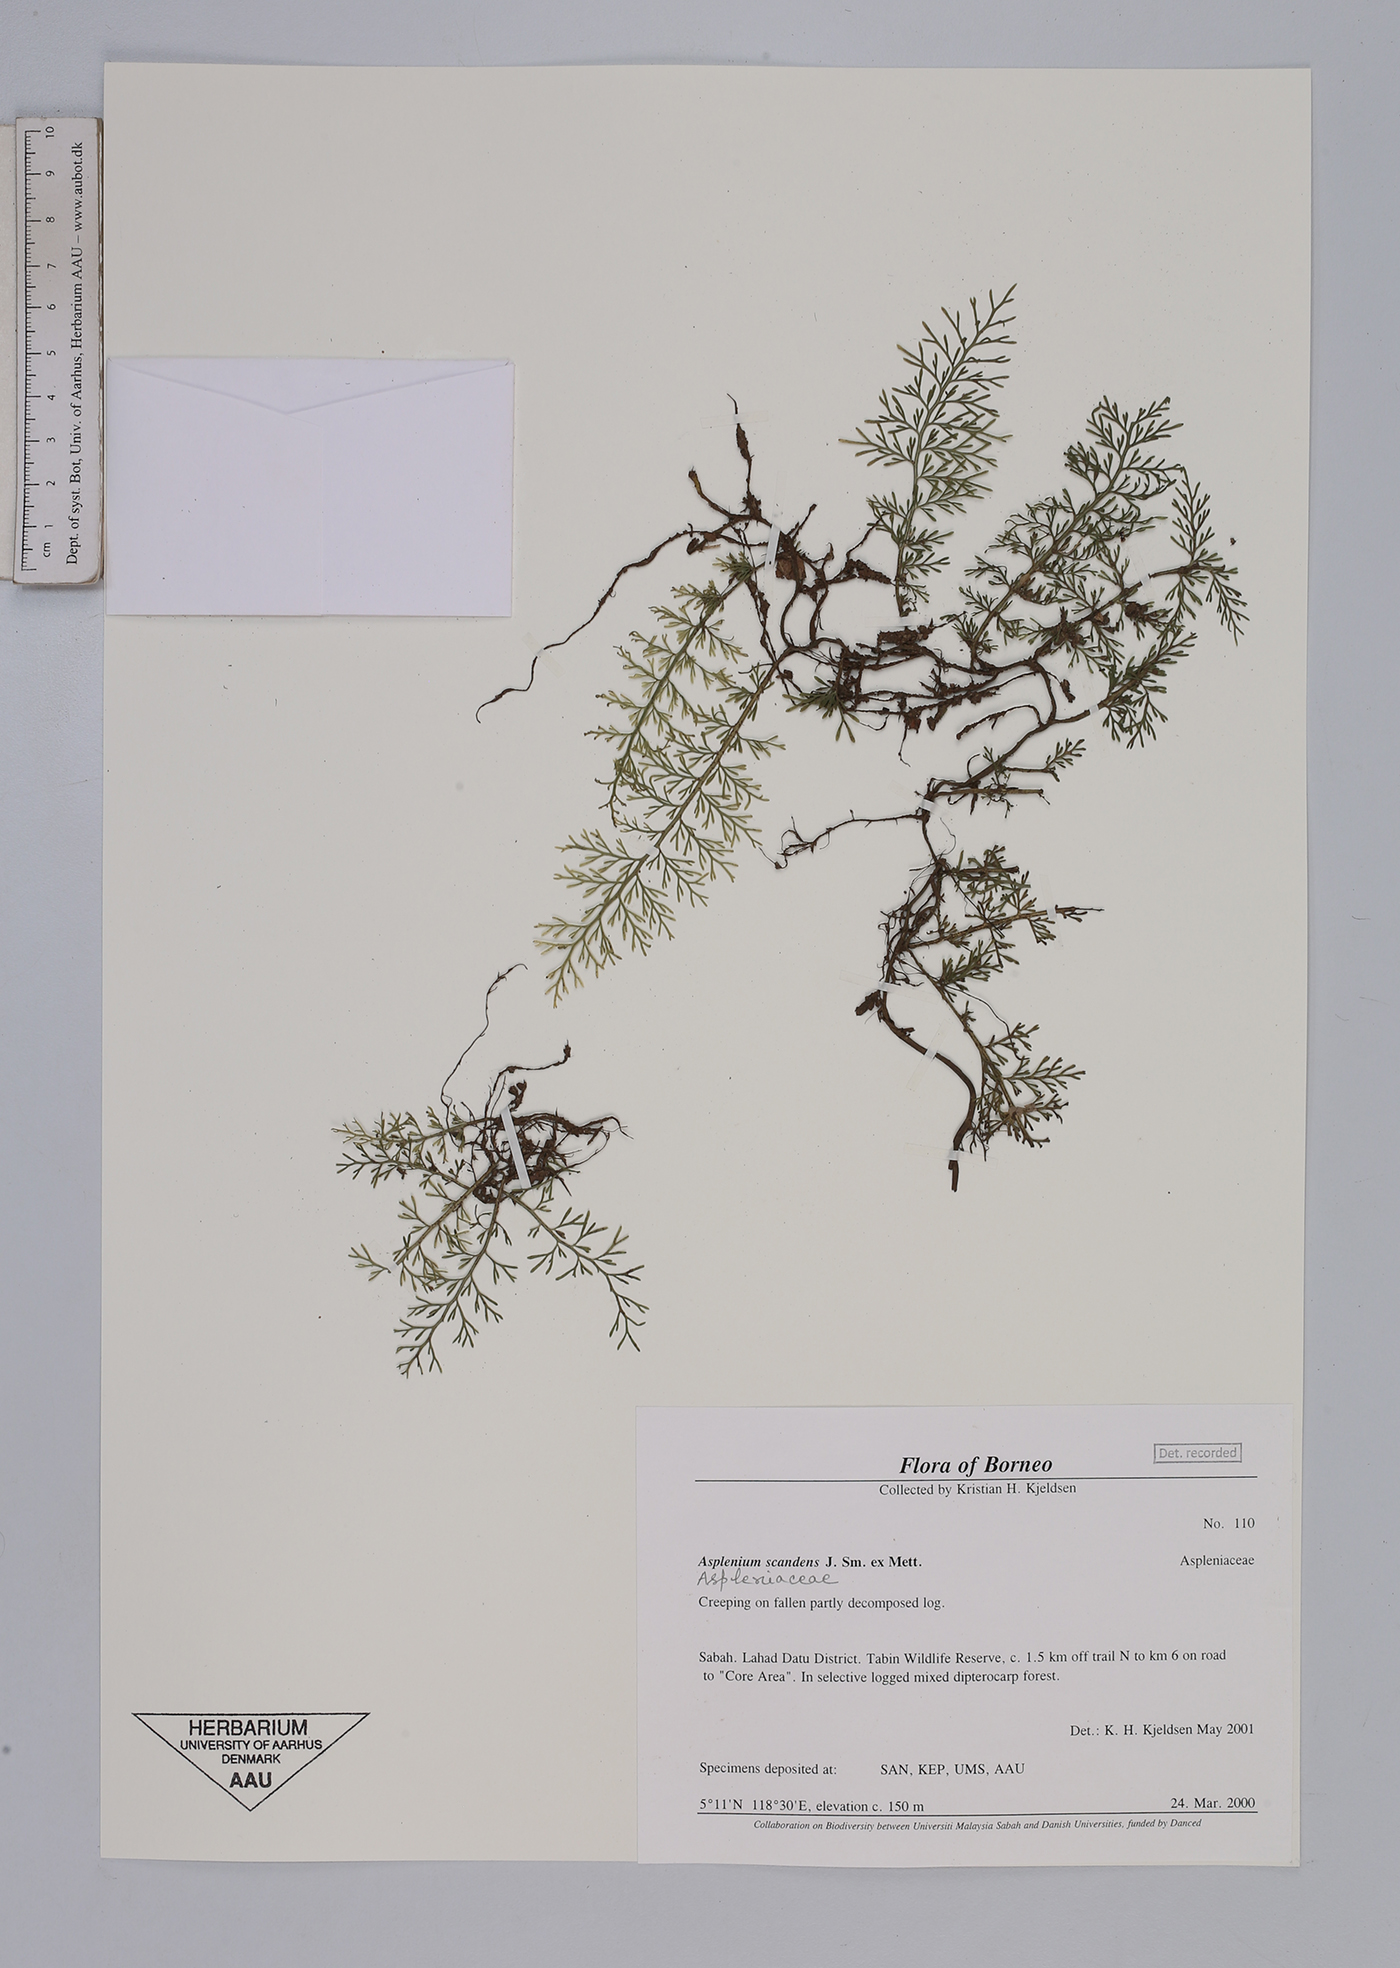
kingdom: Plantae
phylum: Tracheophyta
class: Polypodiopsida
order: Polypodiales
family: Aspleniaceae
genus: Asplenium
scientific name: Asplenium scandens
